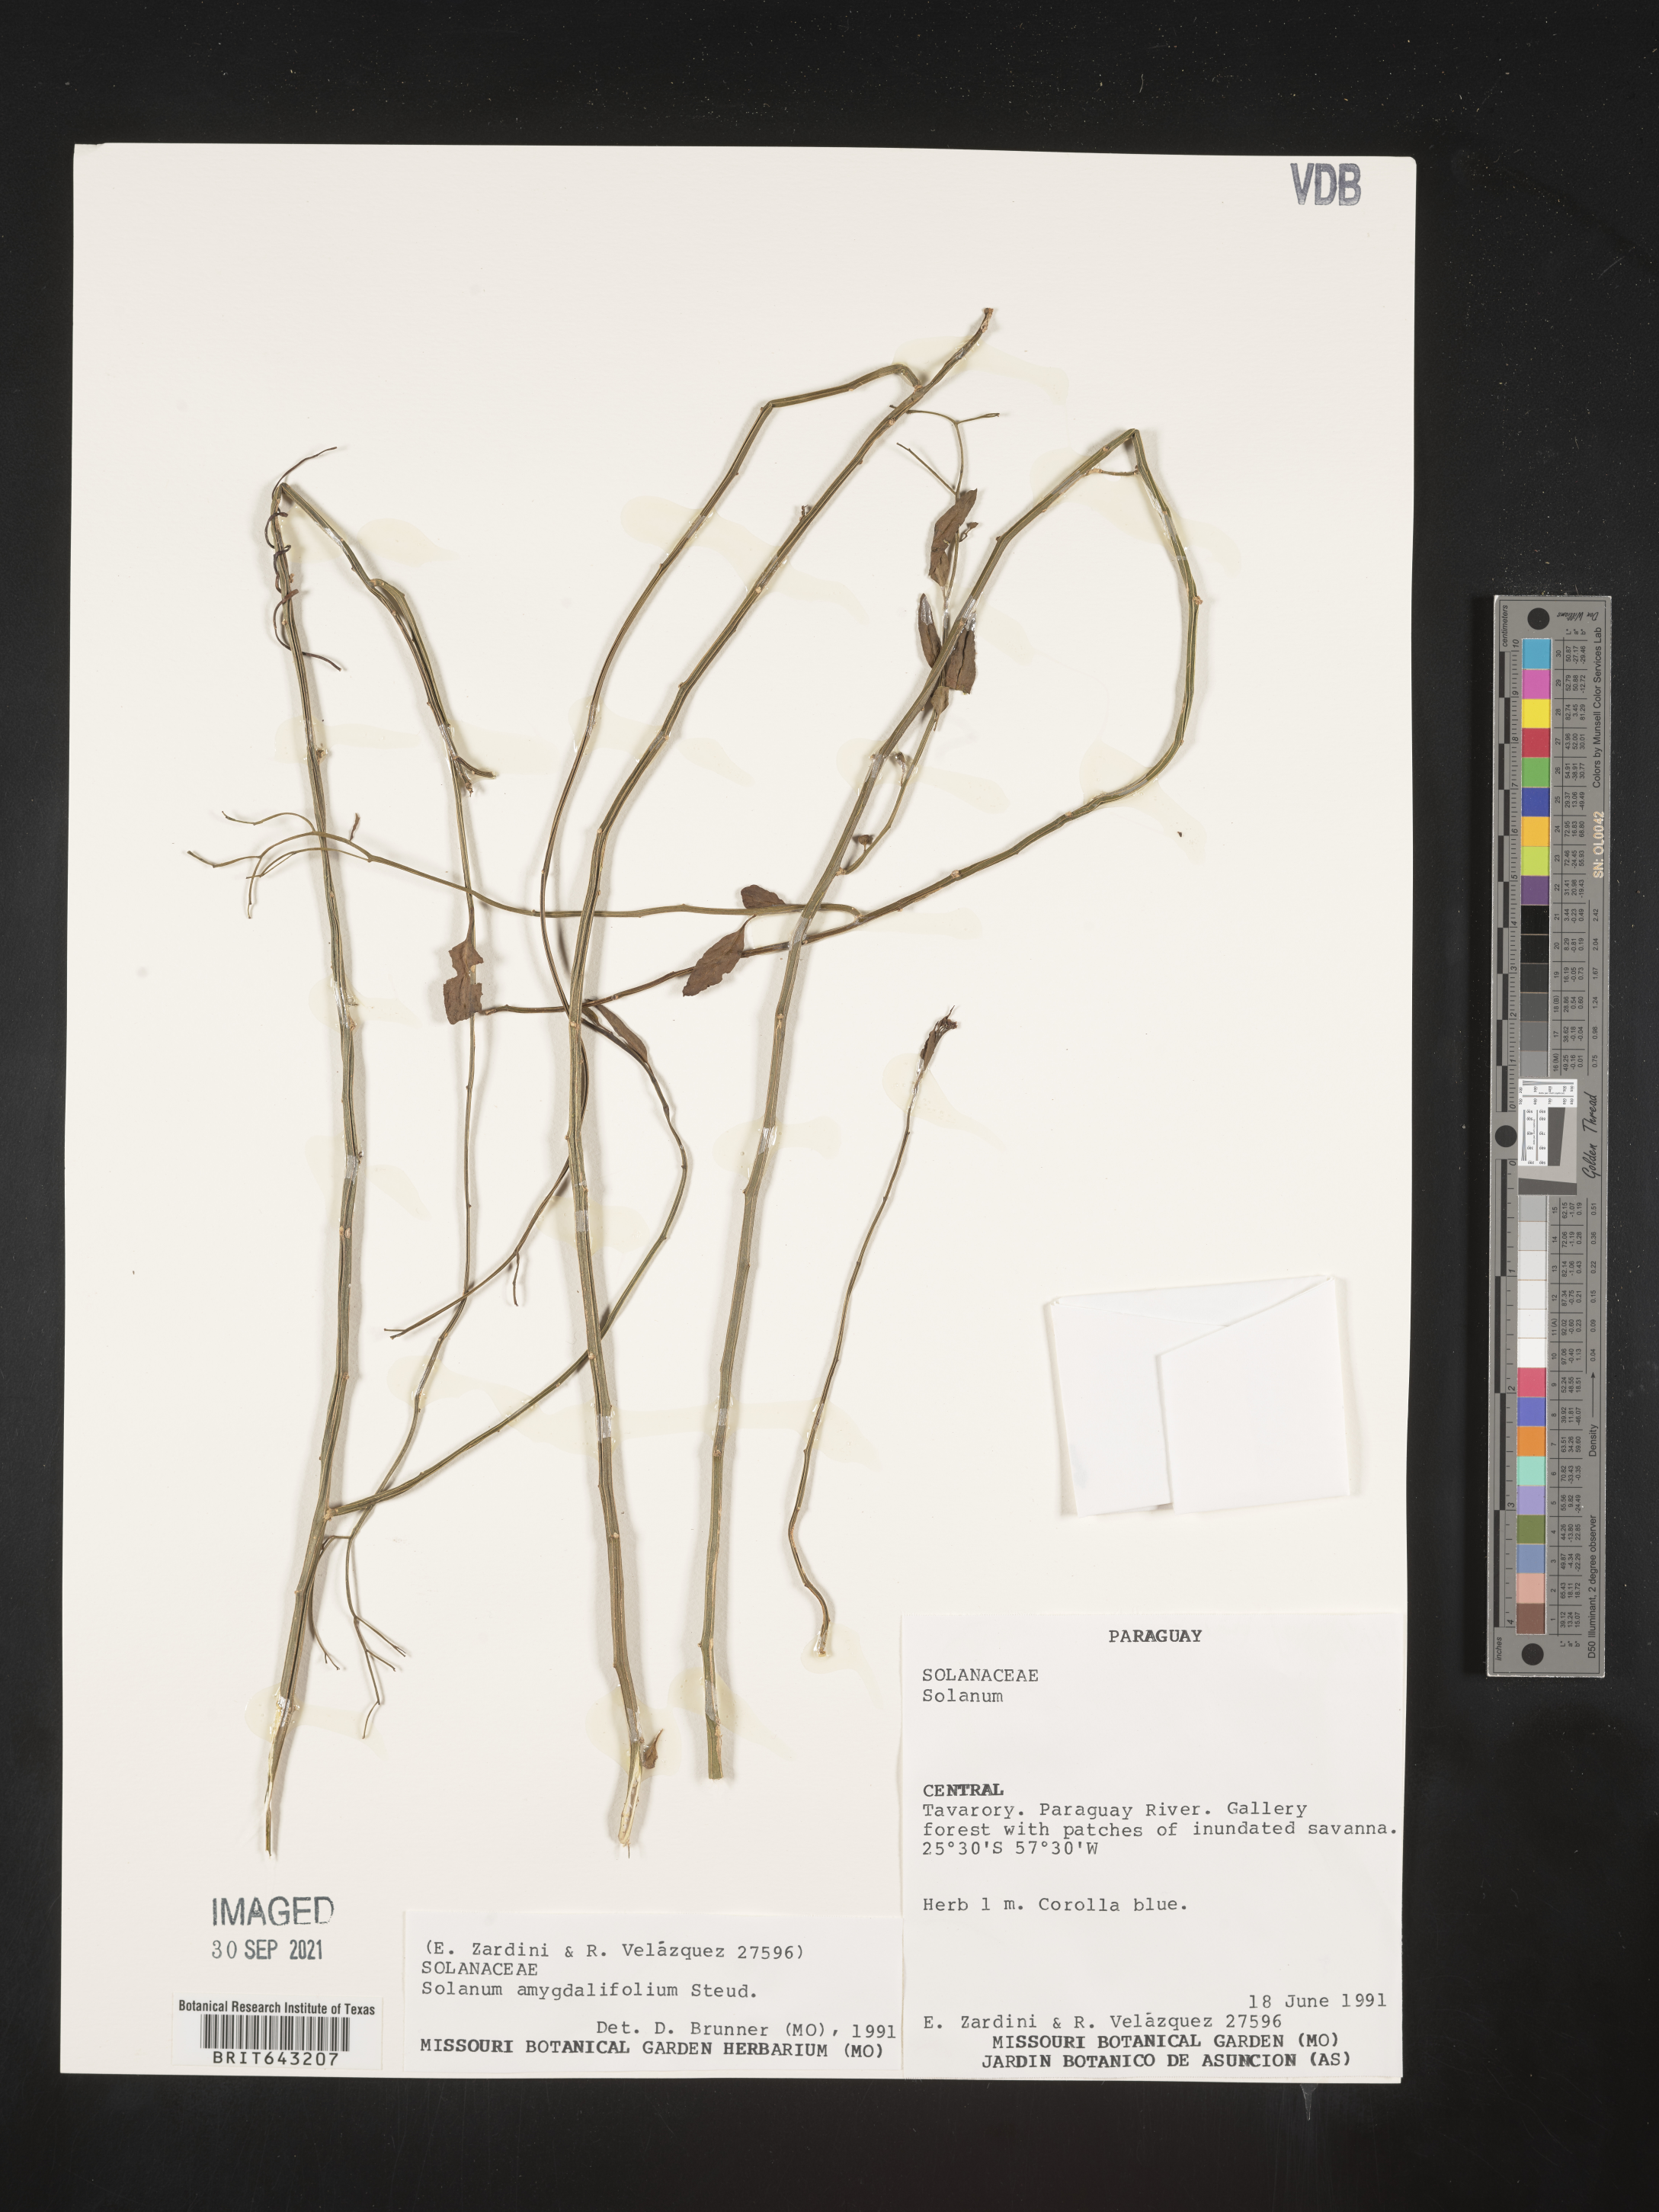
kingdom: Plantae
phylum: Tracheophyta
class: Magnoliopsida
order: Solanales
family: Solanaceae
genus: Solanum
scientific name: Solanum
